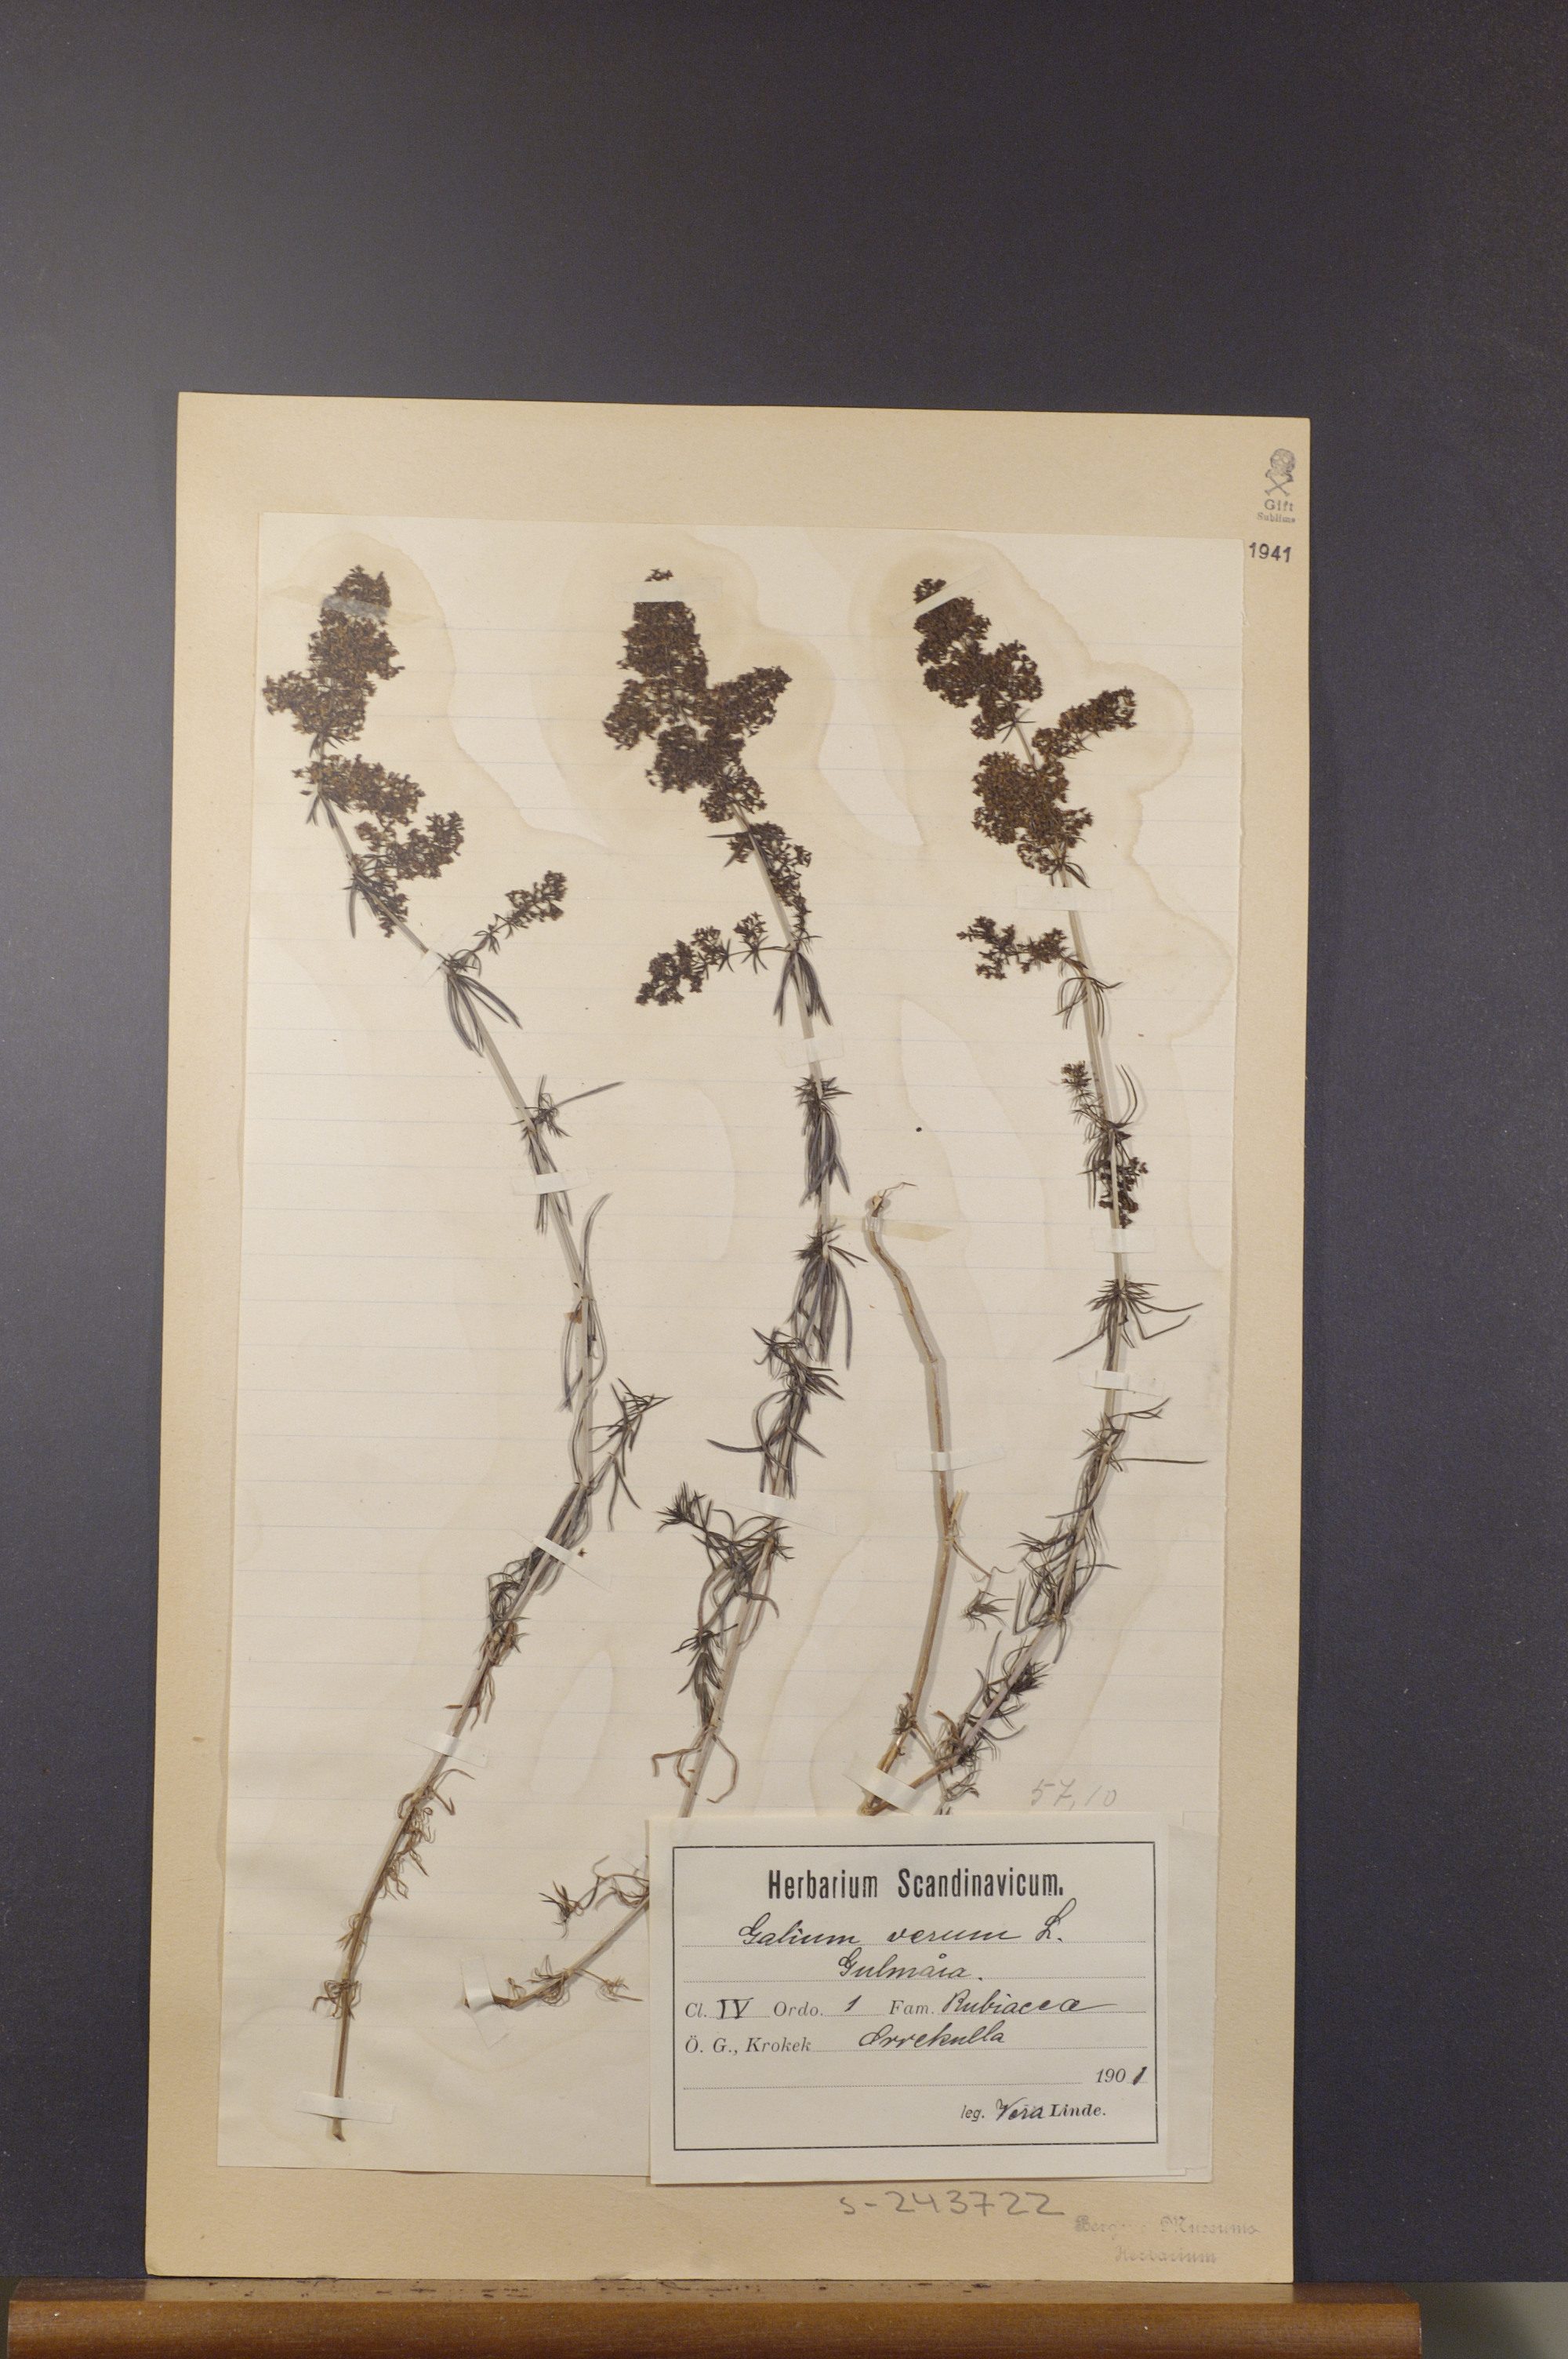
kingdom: Plantae
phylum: Tracheophyta
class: Magnoliopsida
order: Gentianales
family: Rubiaceae
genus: Galium
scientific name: Galium verum
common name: Lady's bedstraw
